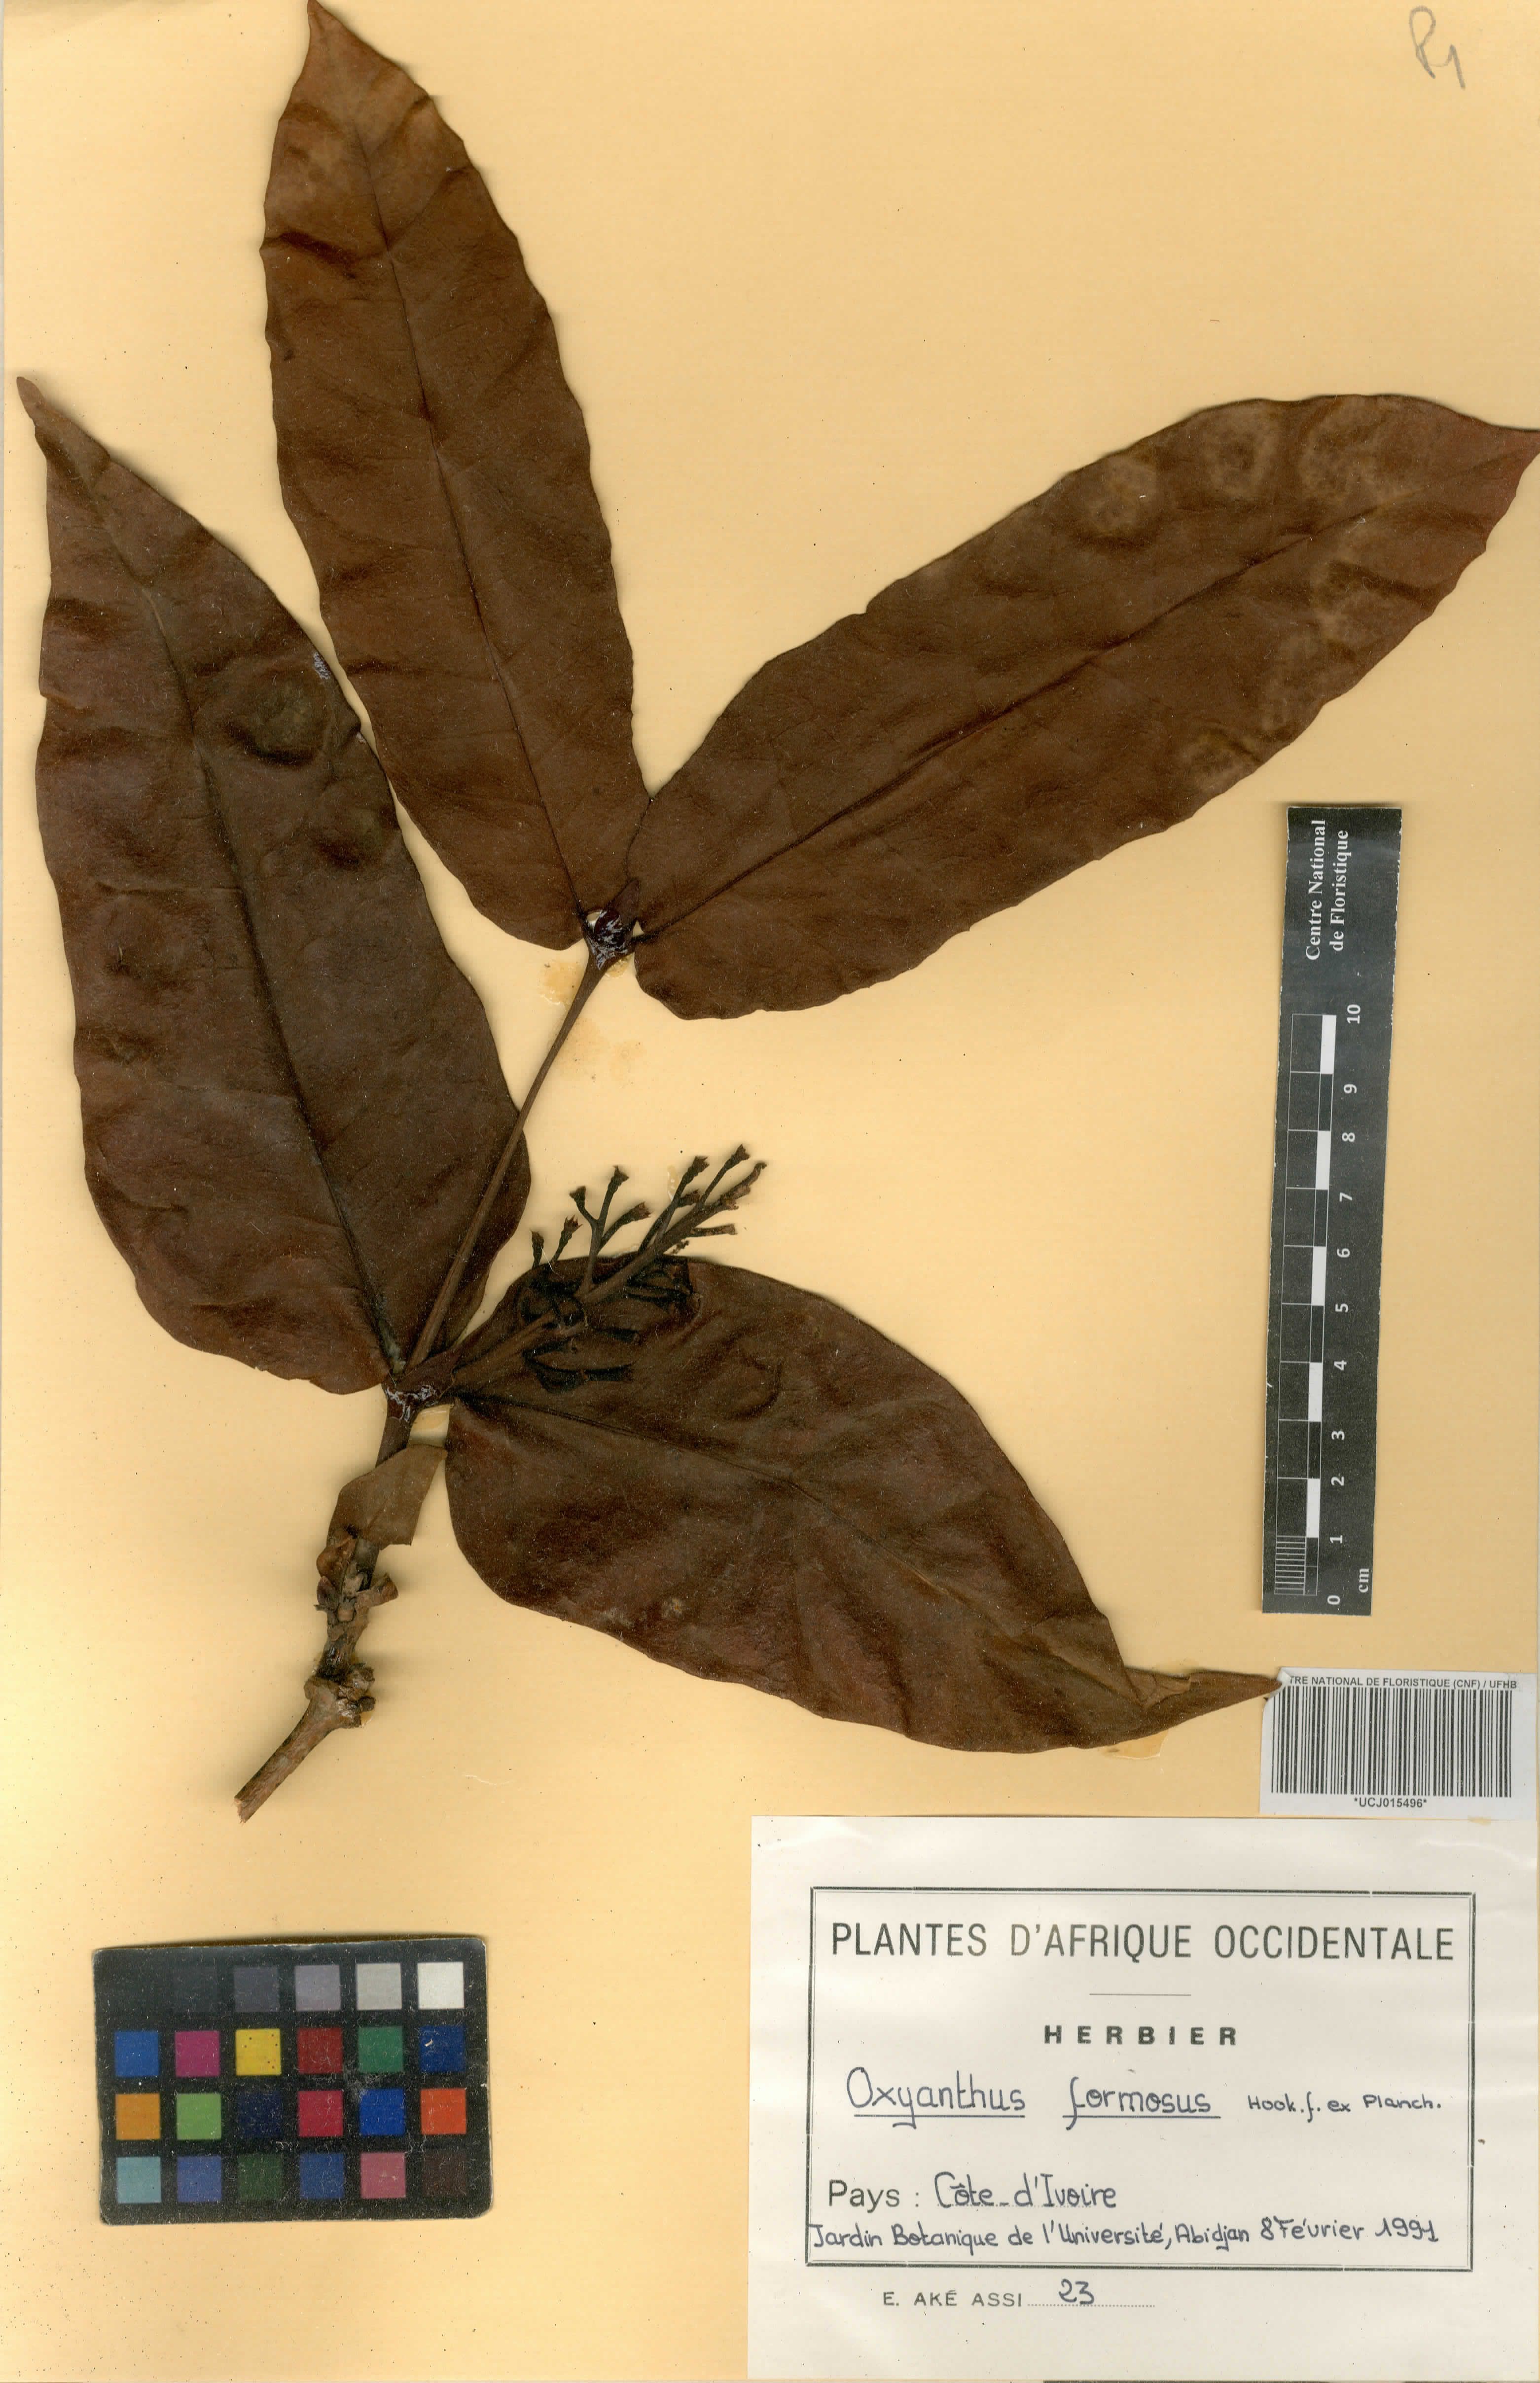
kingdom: Plantae
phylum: Tracheophyta
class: Magnoliopsida
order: Gentianales
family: Rubiaceae
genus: Oxyanthus
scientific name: Oxyanthus formosus
